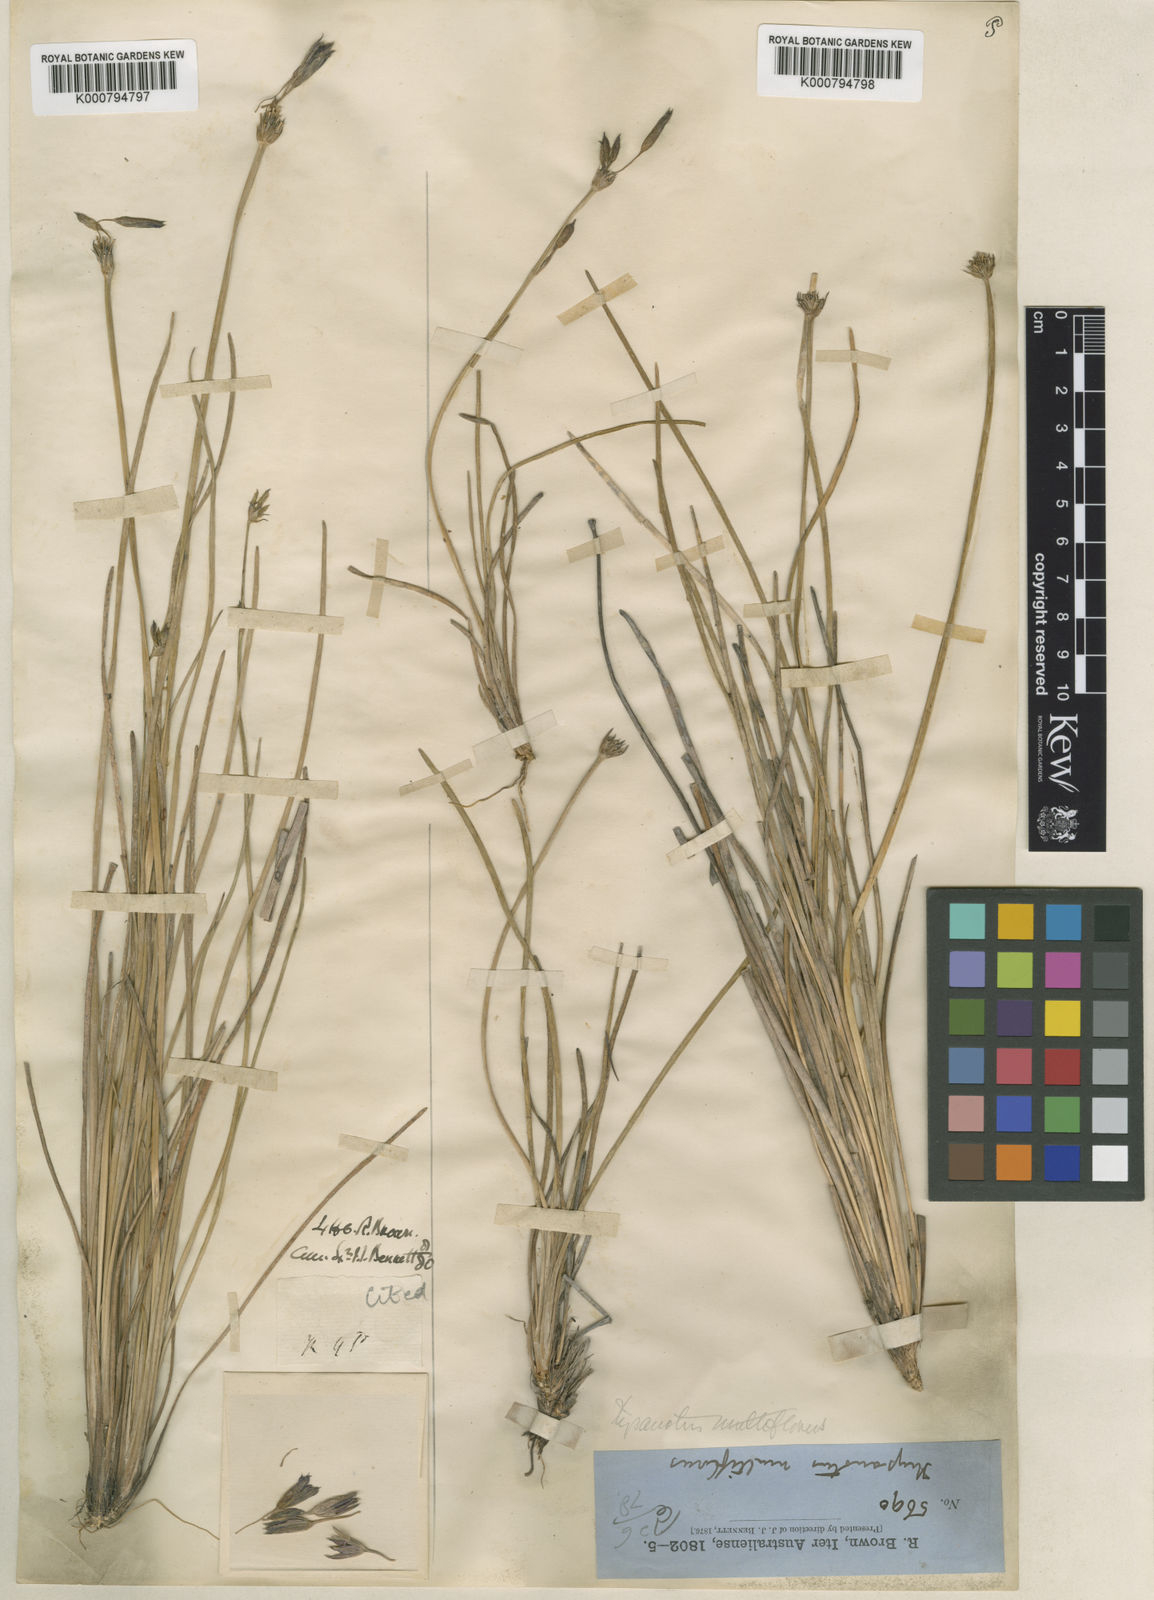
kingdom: Plantae
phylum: Tracheophyta
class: Liliopsida
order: Asparagales
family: Asparagaceae
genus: Thysanotus
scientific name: Thysanotus multiflorus
